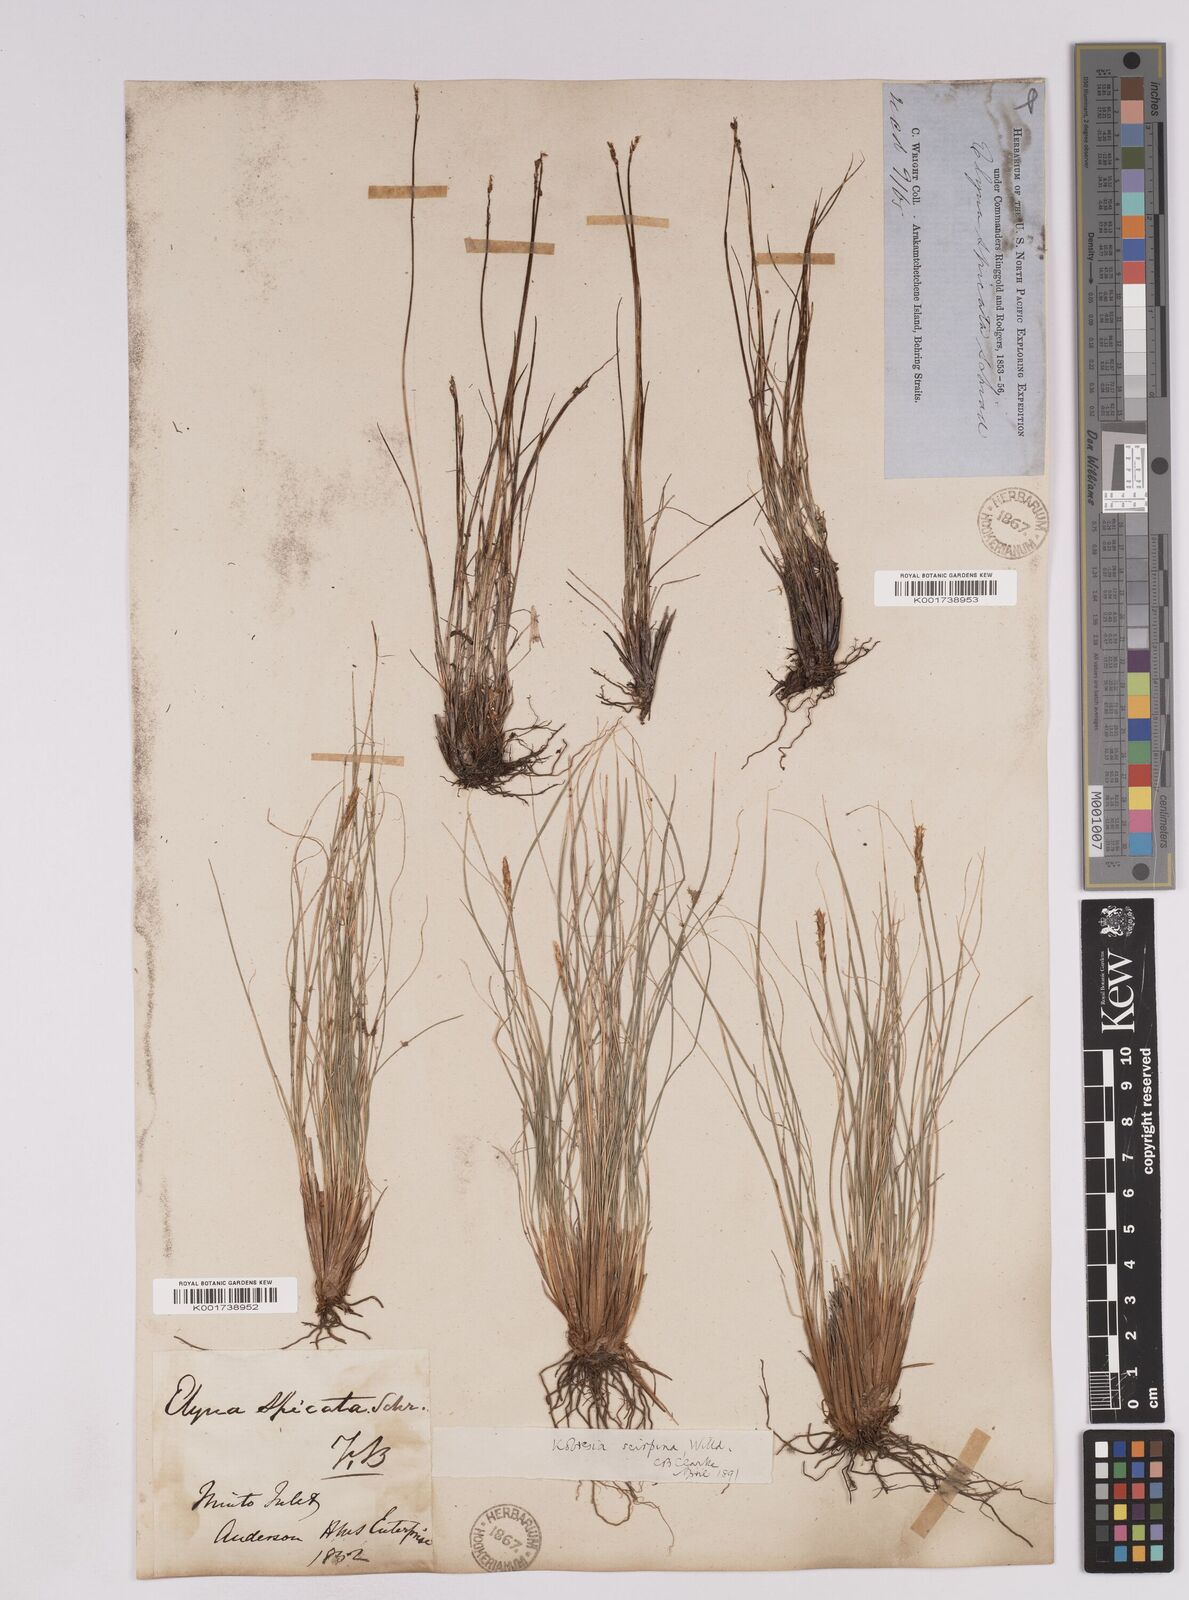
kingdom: Plantae
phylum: Tracheophyta
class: Liliopsida
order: Poales
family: Cyperaceae
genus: Carex
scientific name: Carex myosuroides
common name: Bellard's bog sedge
